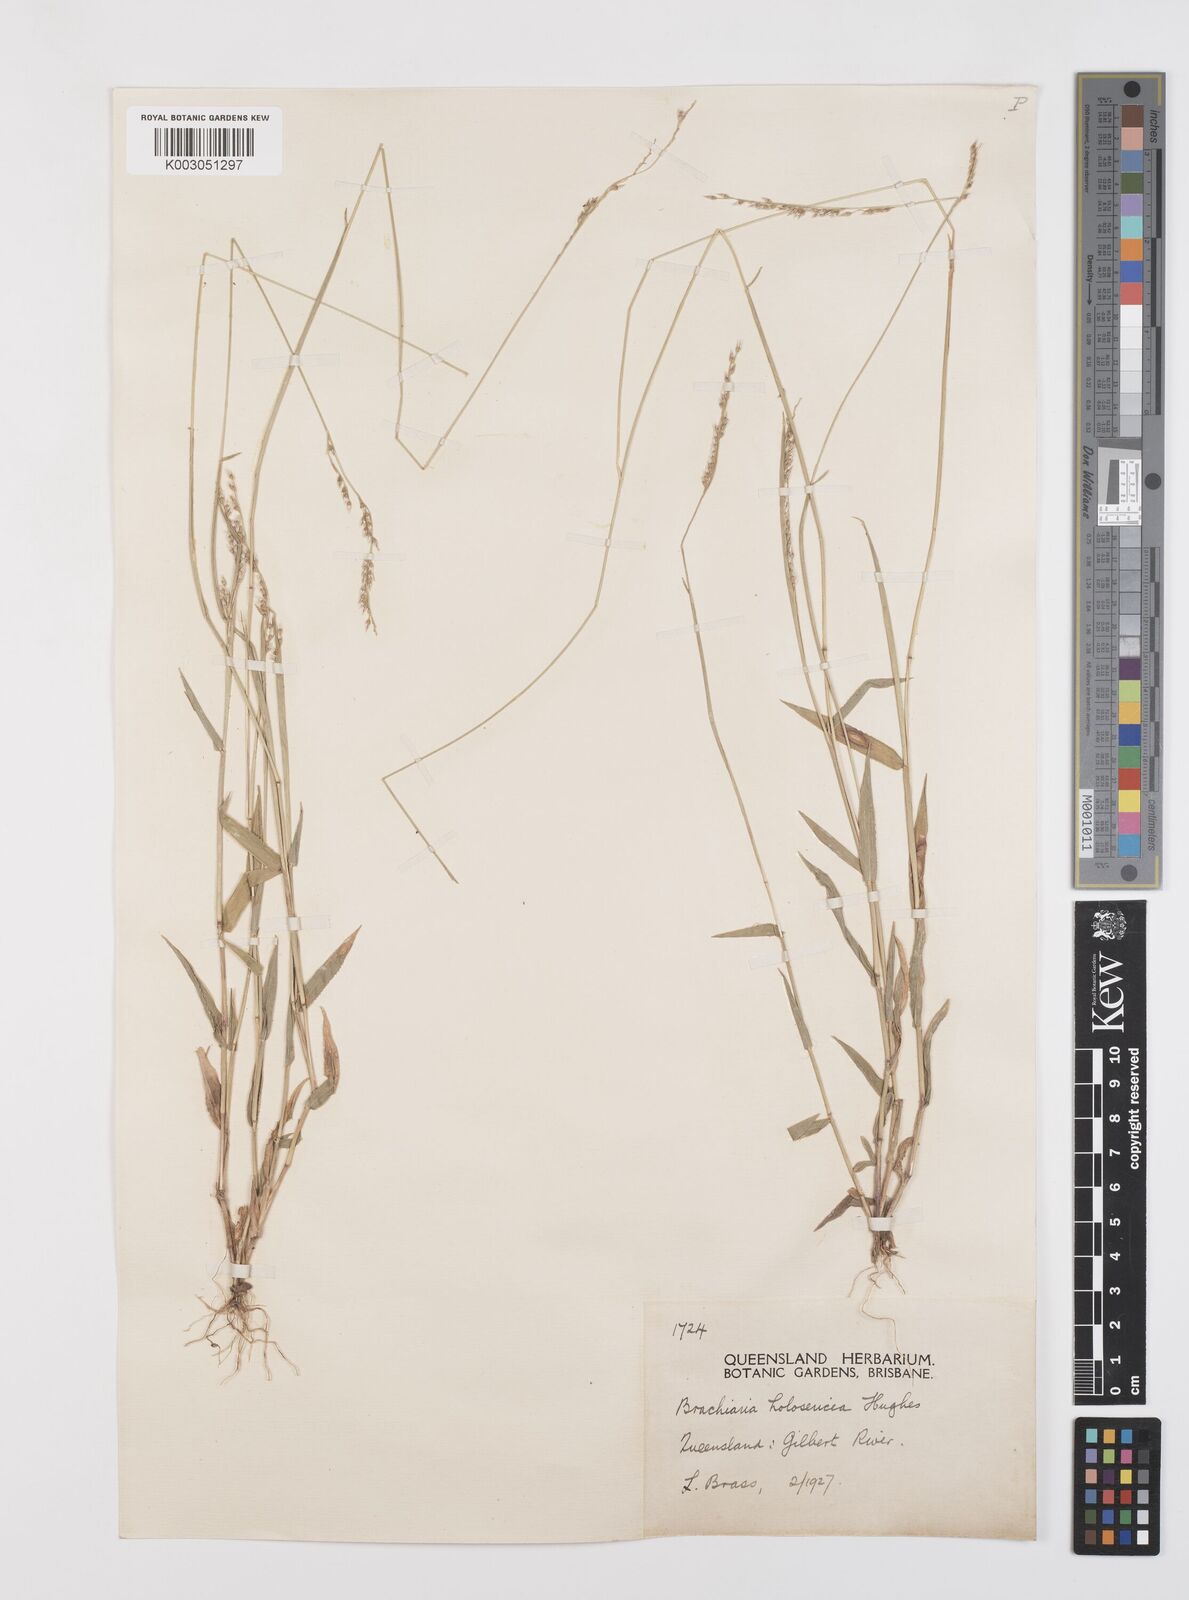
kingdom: Plantae
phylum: Tracheophyta
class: Liliopsida
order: Poales
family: Poaceae
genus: Urochloa
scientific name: Urochloa holosericea
